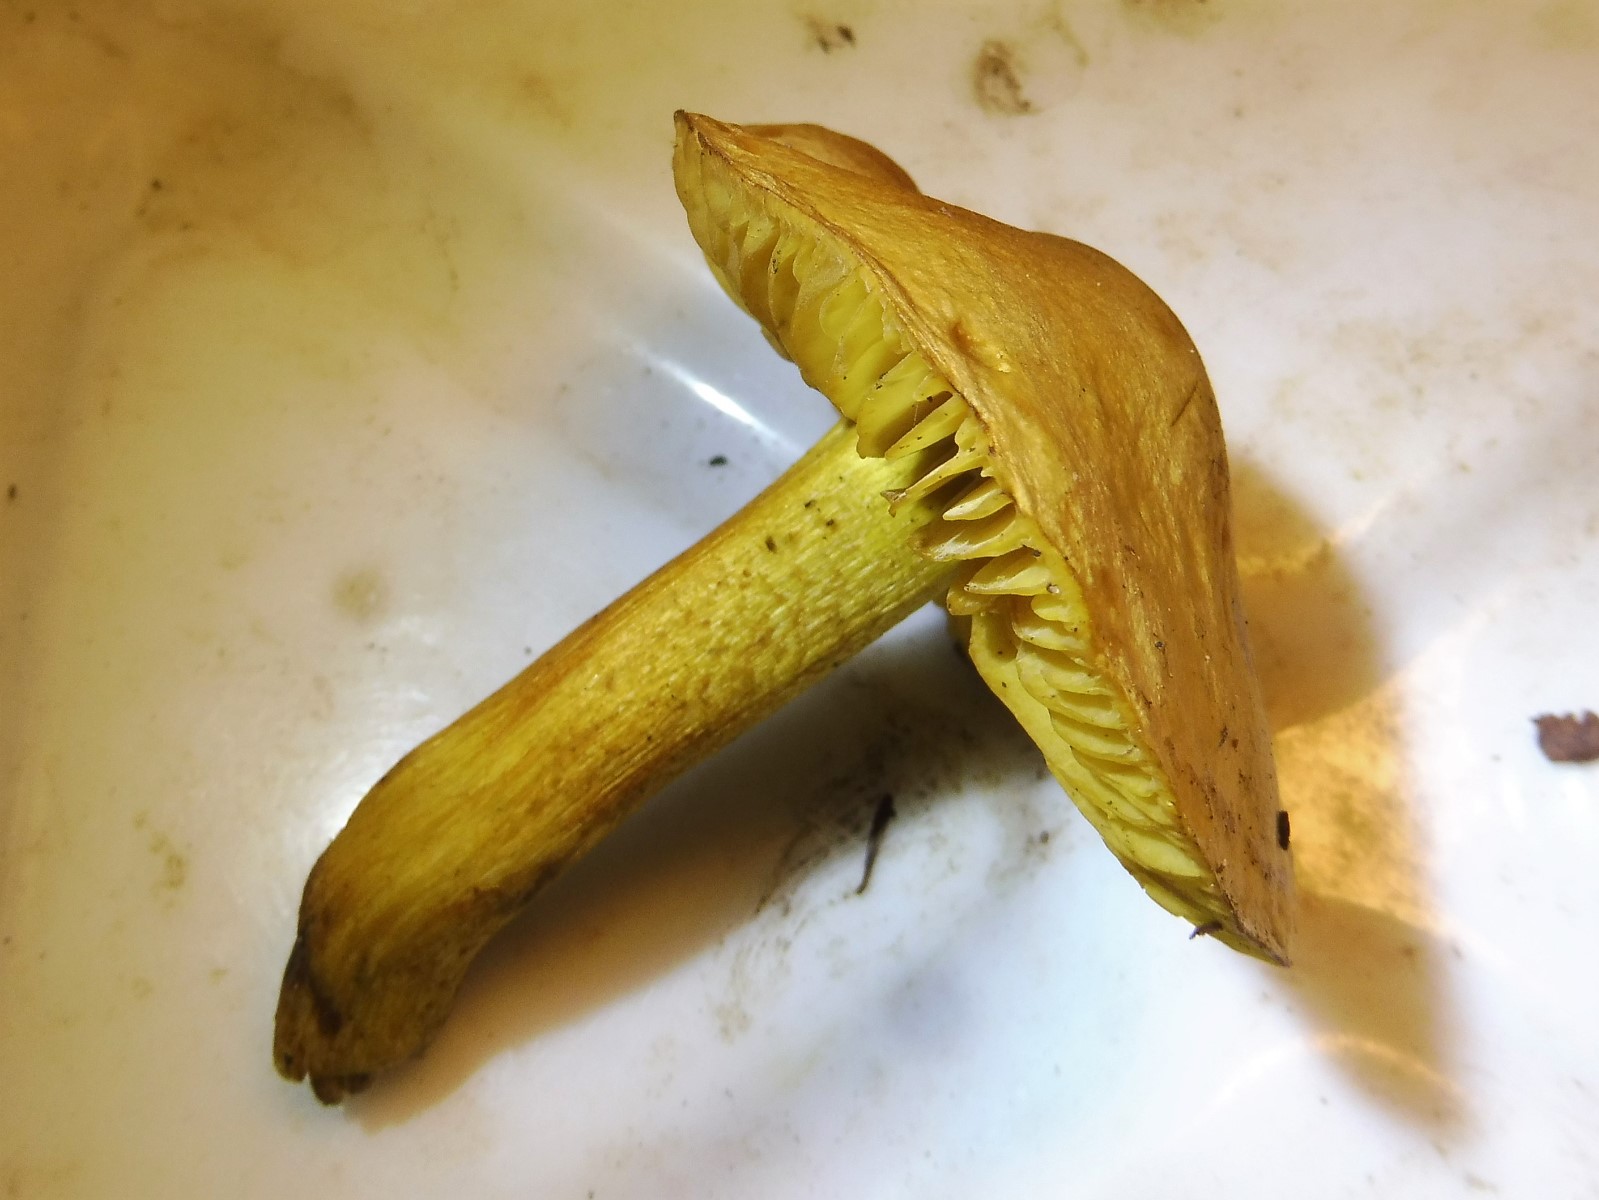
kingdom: Fungi
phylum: Basidiomycota
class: Agaricomycetes
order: Agaricales
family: Tricholomataceae
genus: Tricholoma
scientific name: Tricholoma sulphureum
